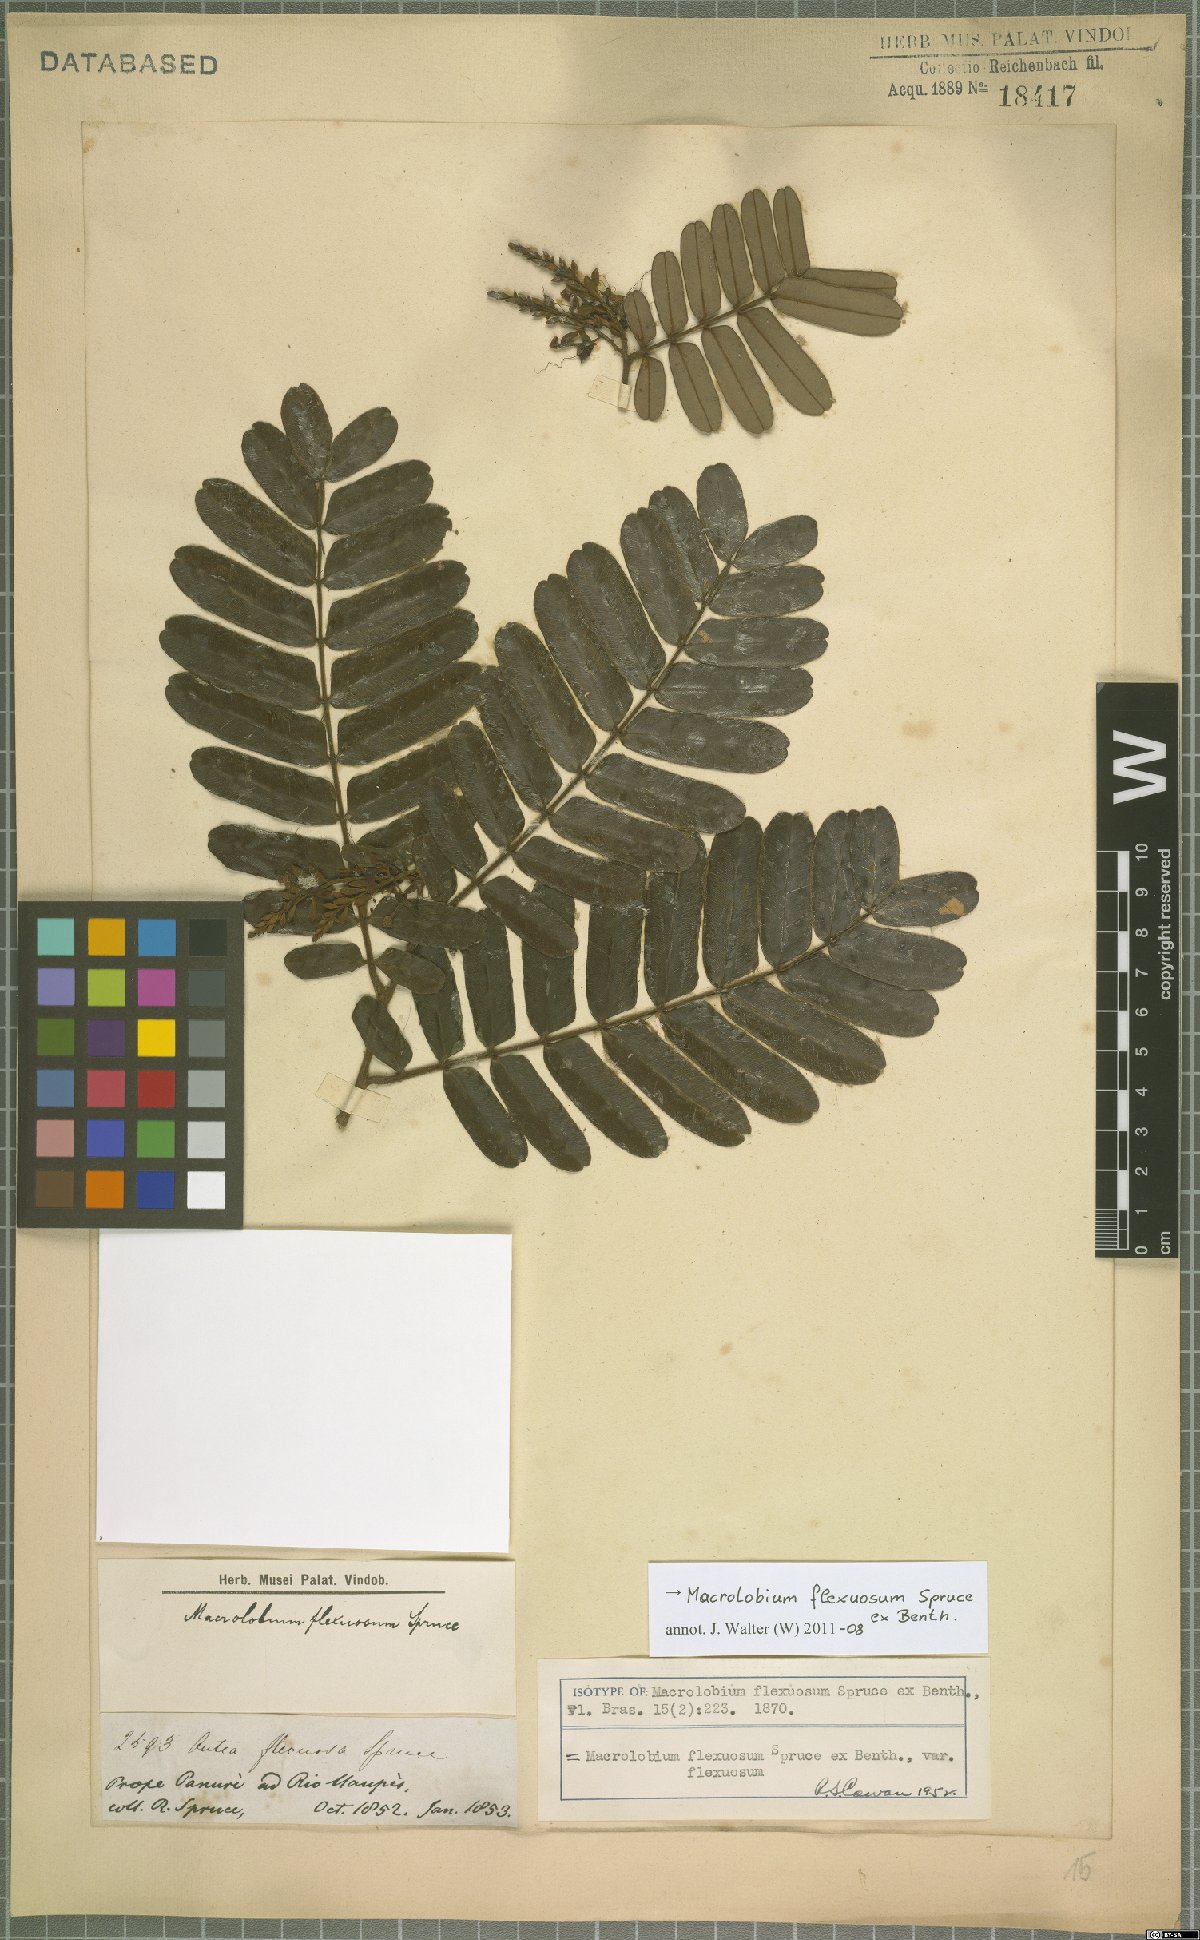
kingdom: Plantae
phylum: Tracheophyta
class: Magnoliopsida
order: Fabales
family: Fabaceae
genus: Macrolobium
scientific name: Macrolobium flexuosum
